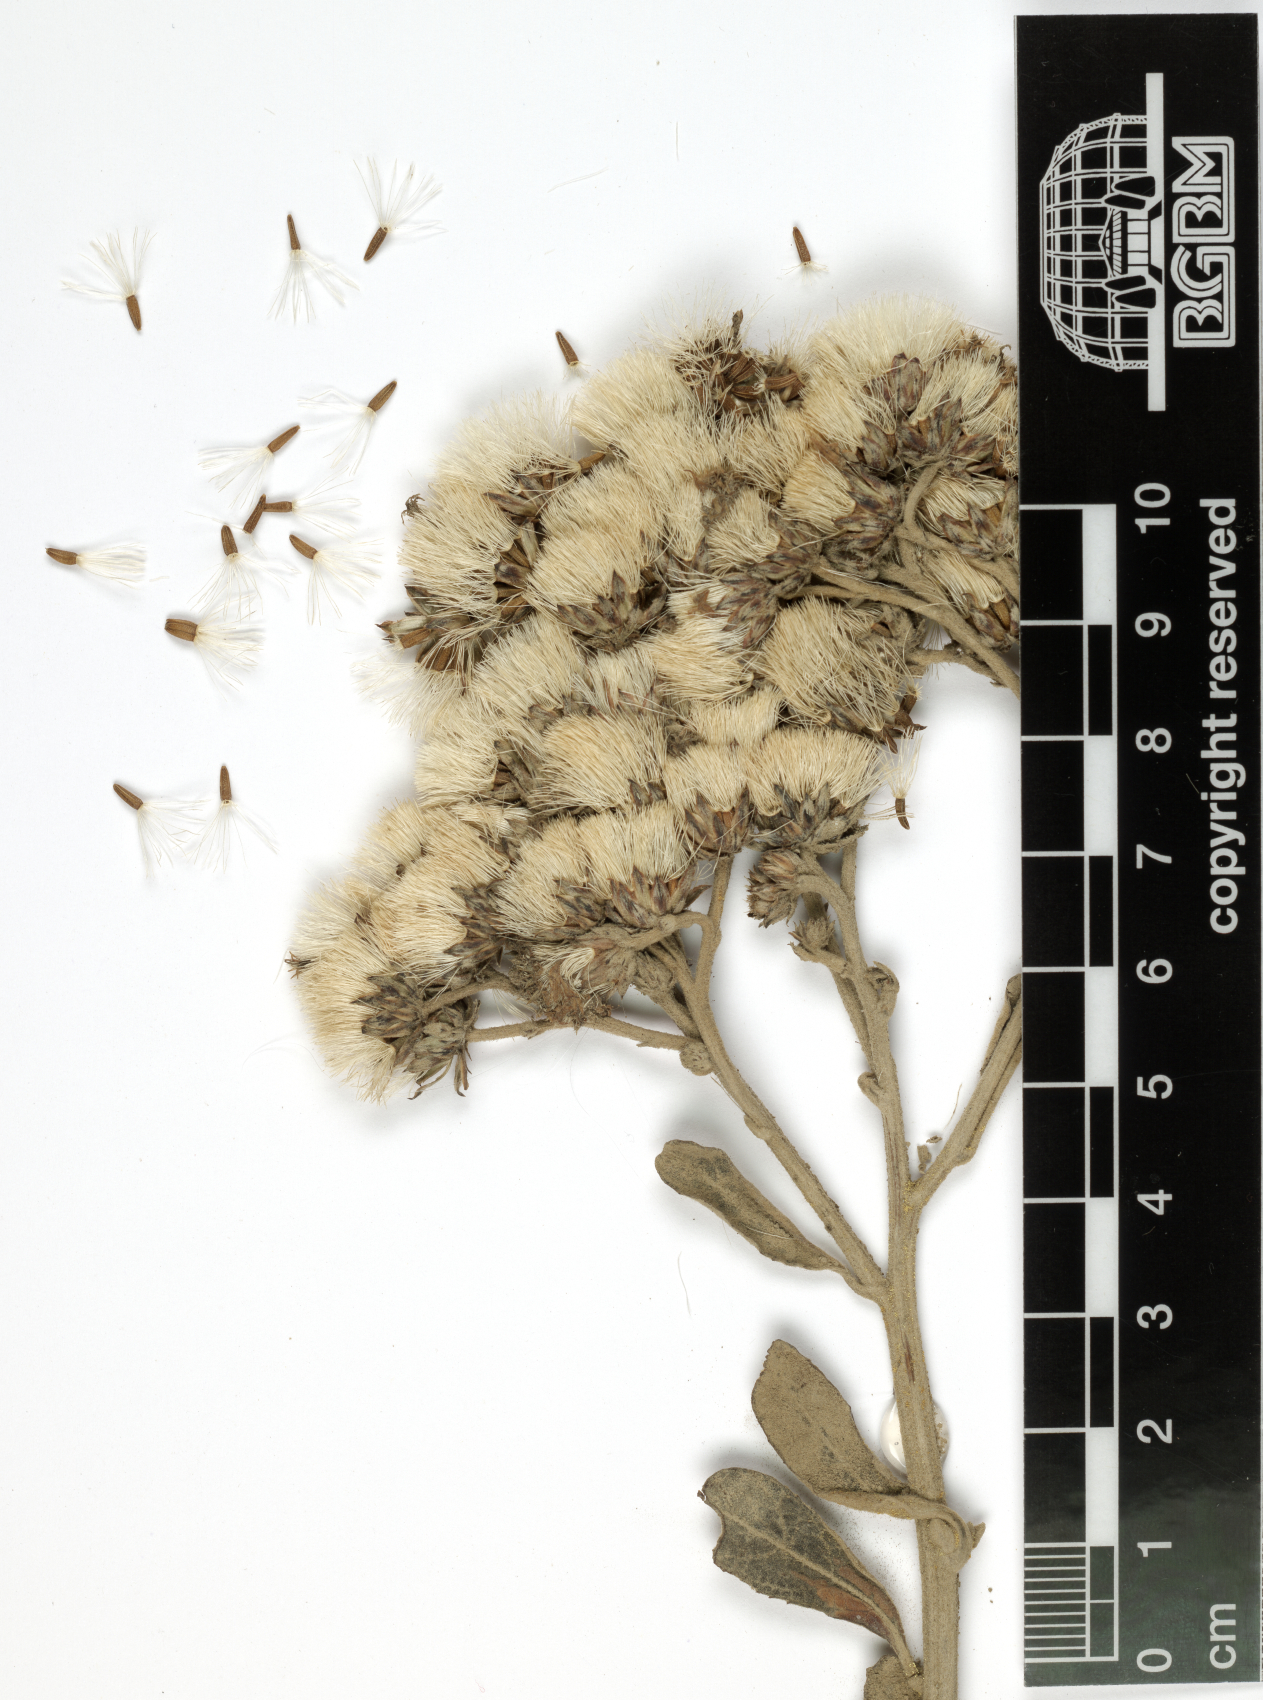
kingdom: Plantae
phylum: Tracheophyta
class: Magnoliopsida
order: Asterales
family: Asteraceae
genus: Orbivestus
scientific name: Orbivestus leopoldii
